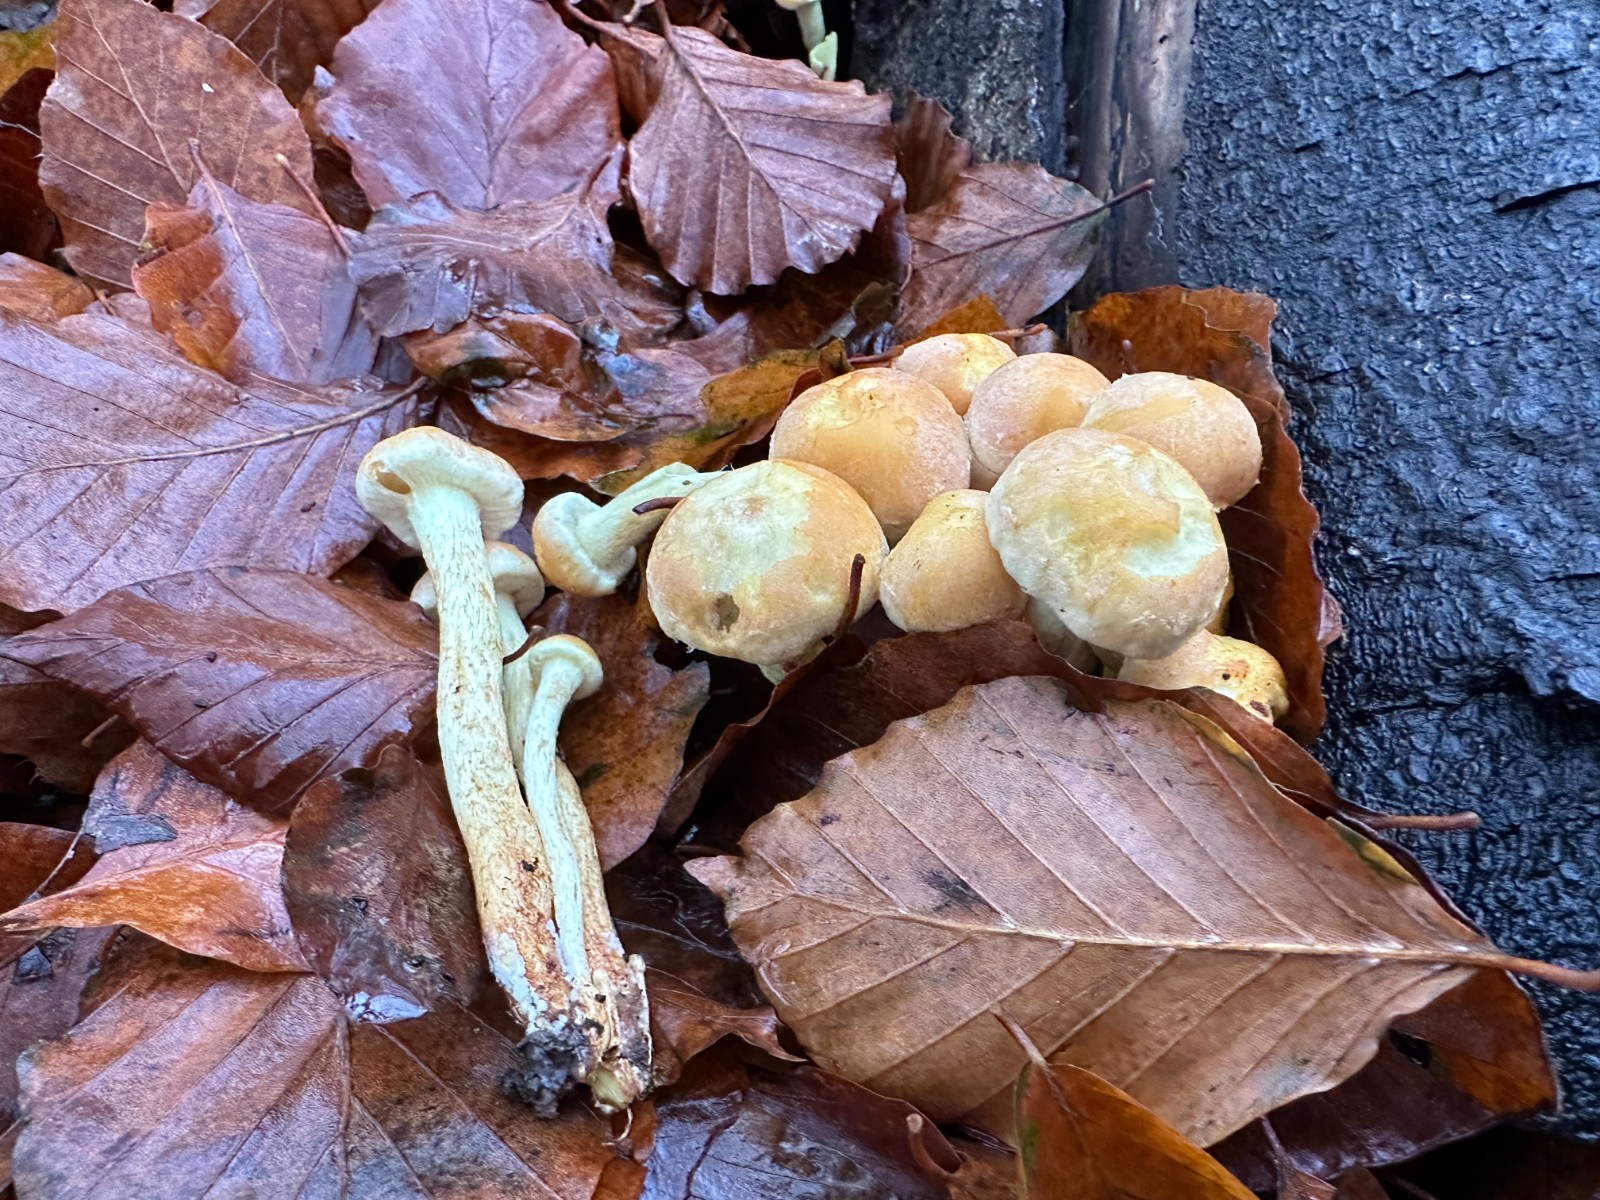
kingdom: Fungi
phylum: Basidiomycota
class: Agaricomycetes
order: Agaricales
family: Strophariaceae
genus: Hypholoma
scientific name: Hypholoma fasciculare
